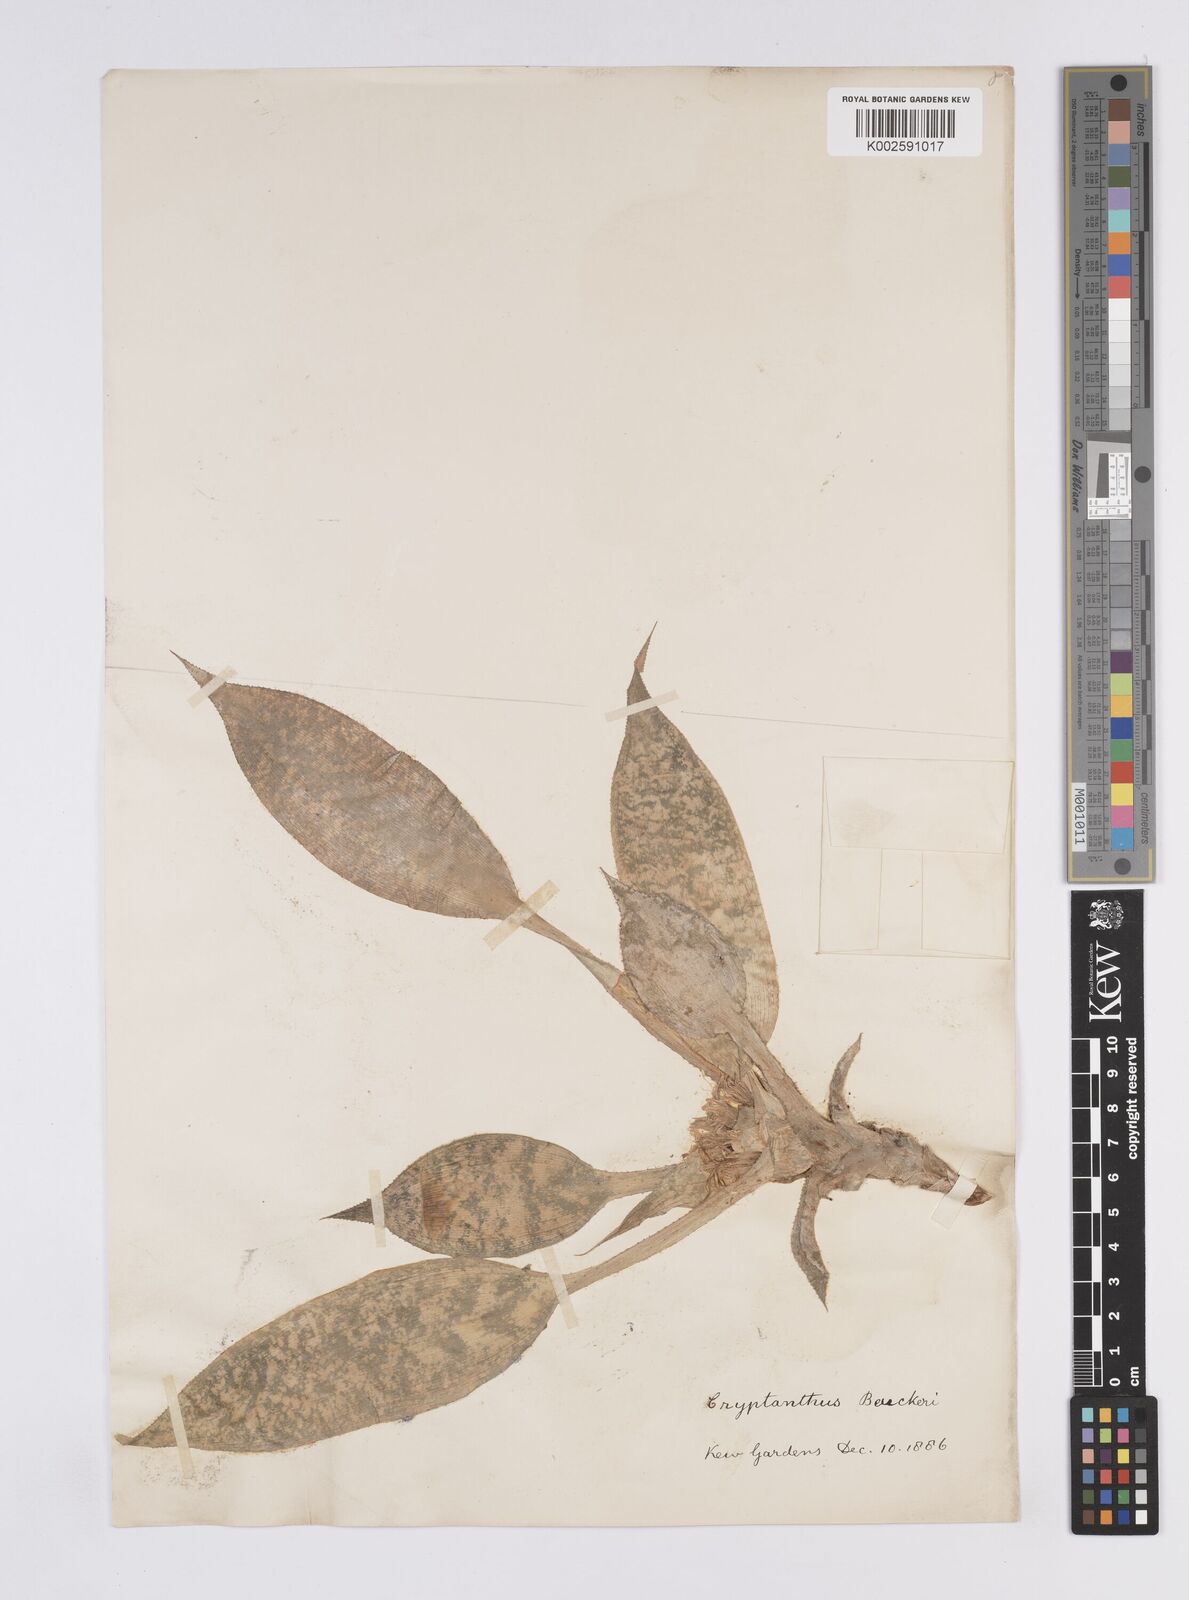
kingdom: Plantae
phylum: Tracheophyta
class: Liliopsida
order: Poales
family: Bromeliaceae
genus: Cryptanthus
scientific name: Cryptanthus beuckeri
